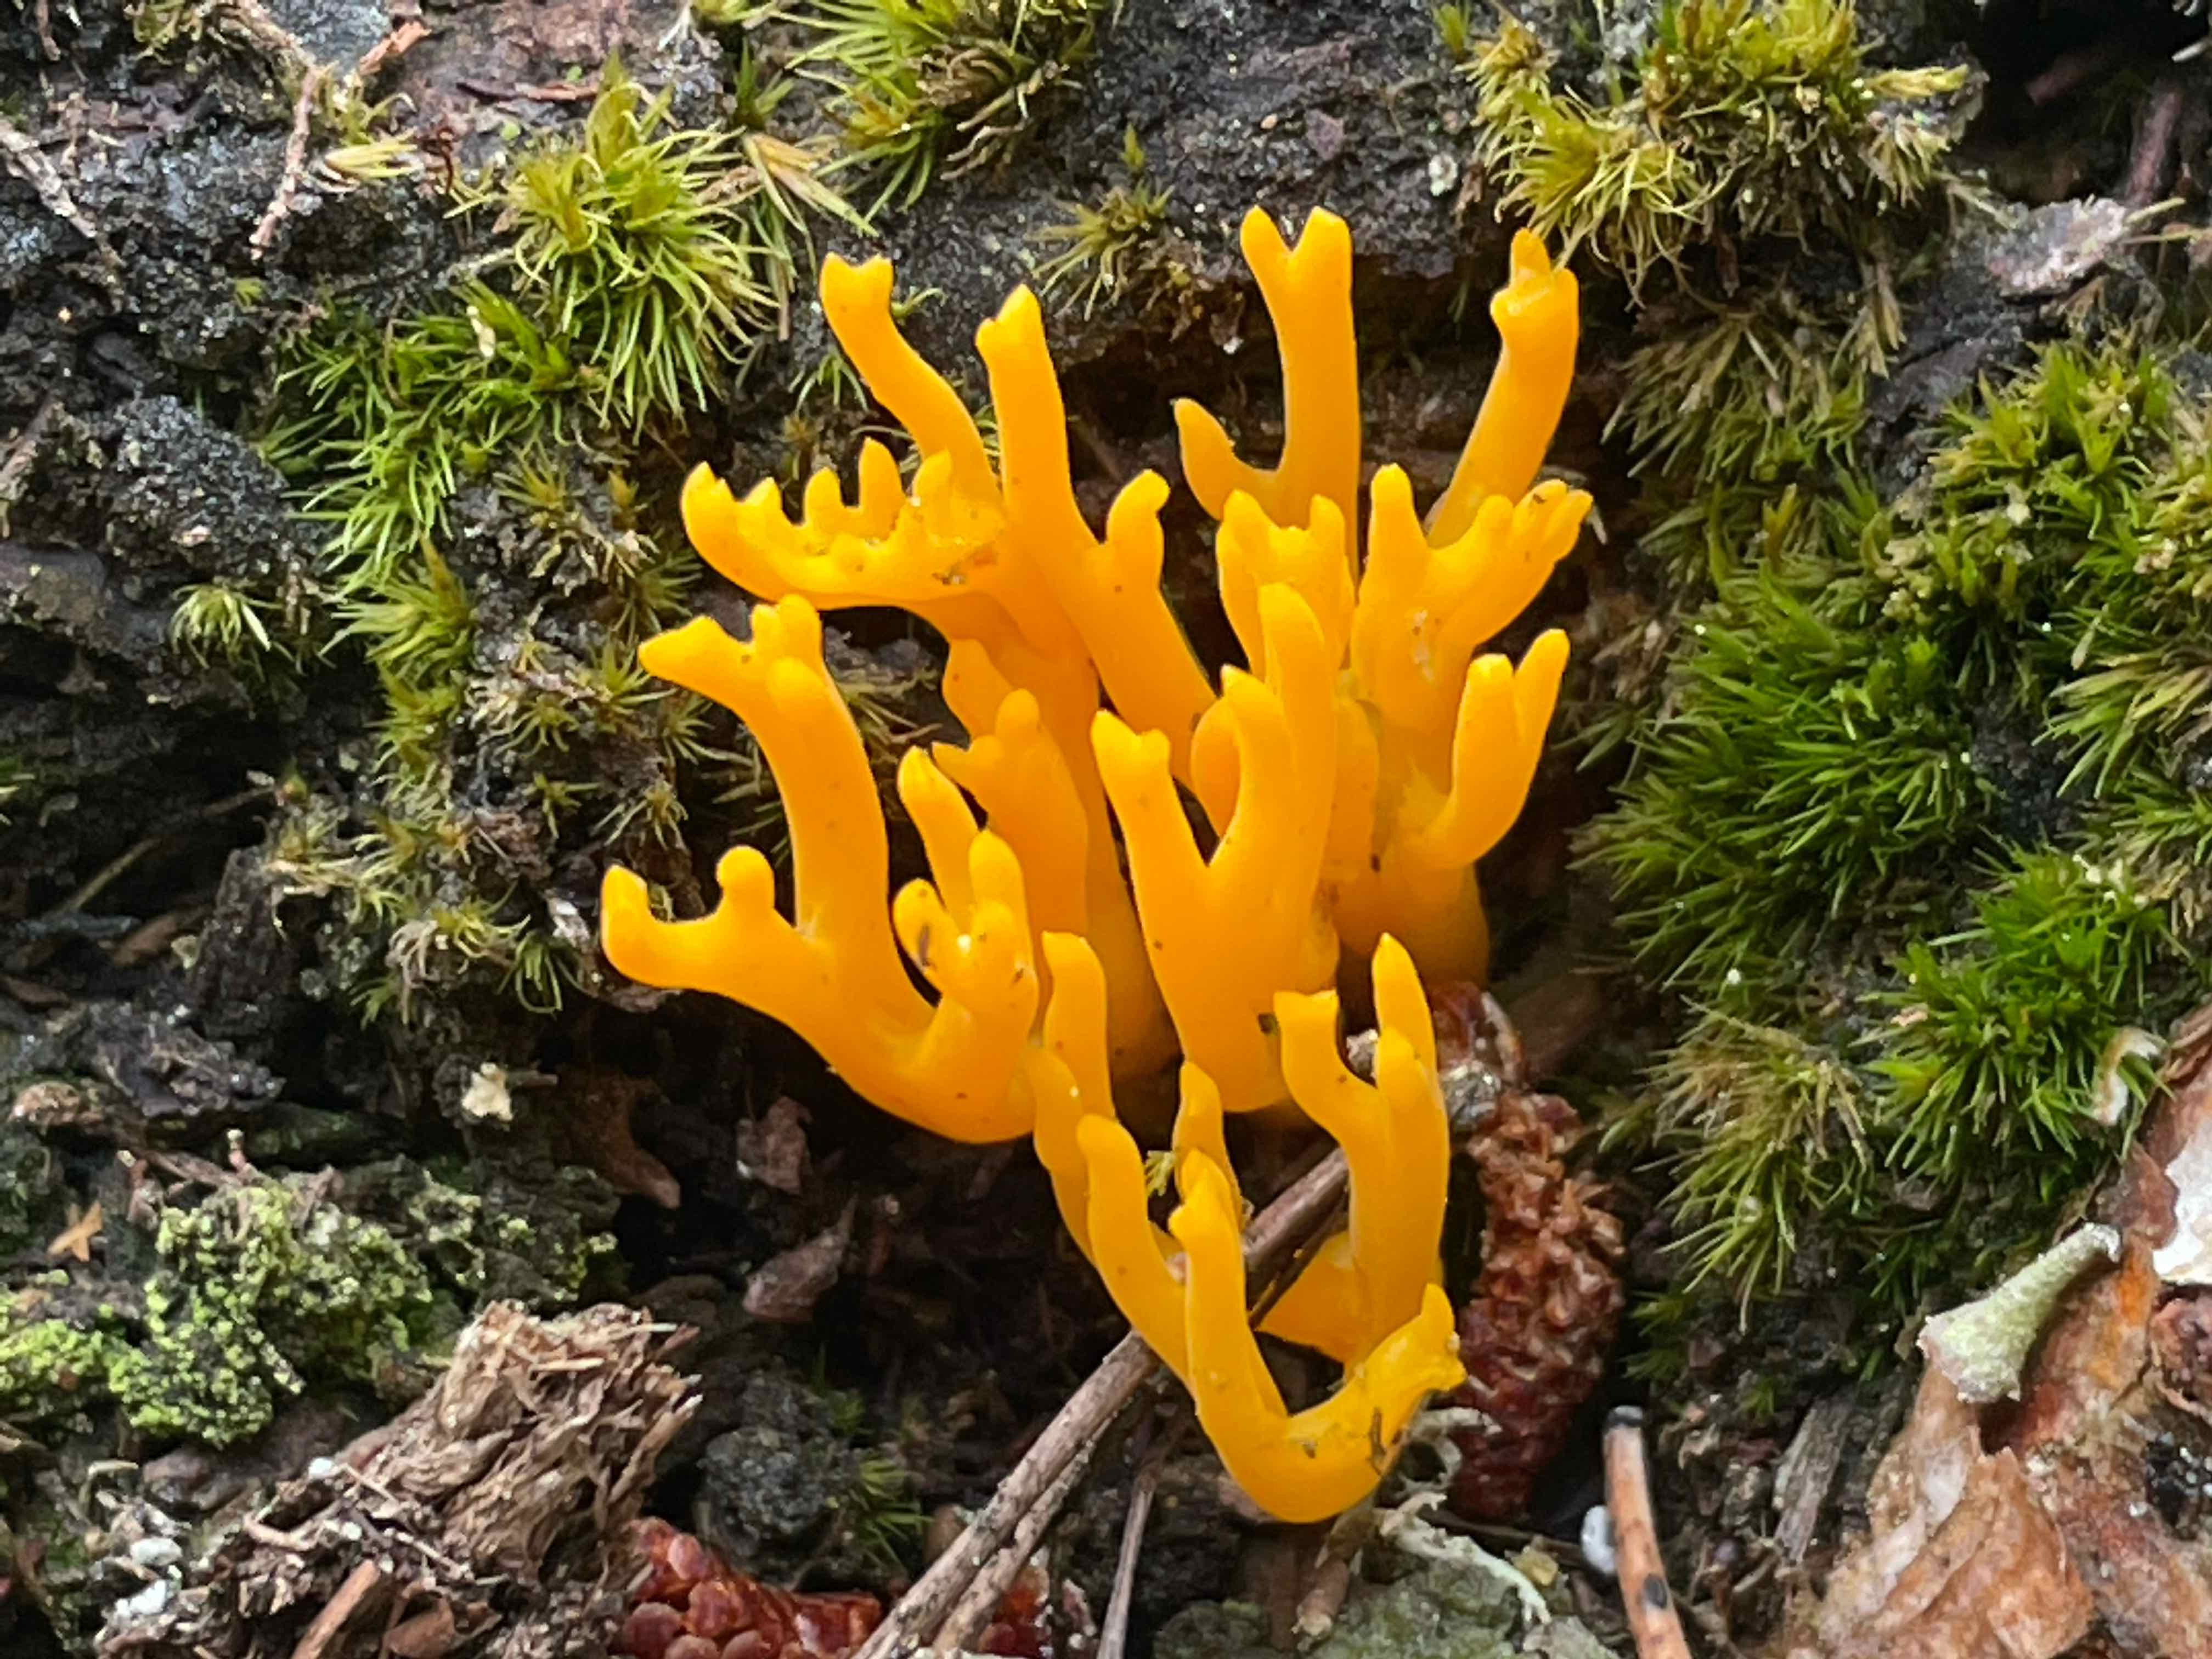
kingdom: Fungi
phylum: Basidiomycota
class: Dacrymycetes
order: Dacrymycetales
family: Dacrymycetaceae
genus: Calocera
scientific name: Calocera viscosa
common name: almindelig guldgaffel
